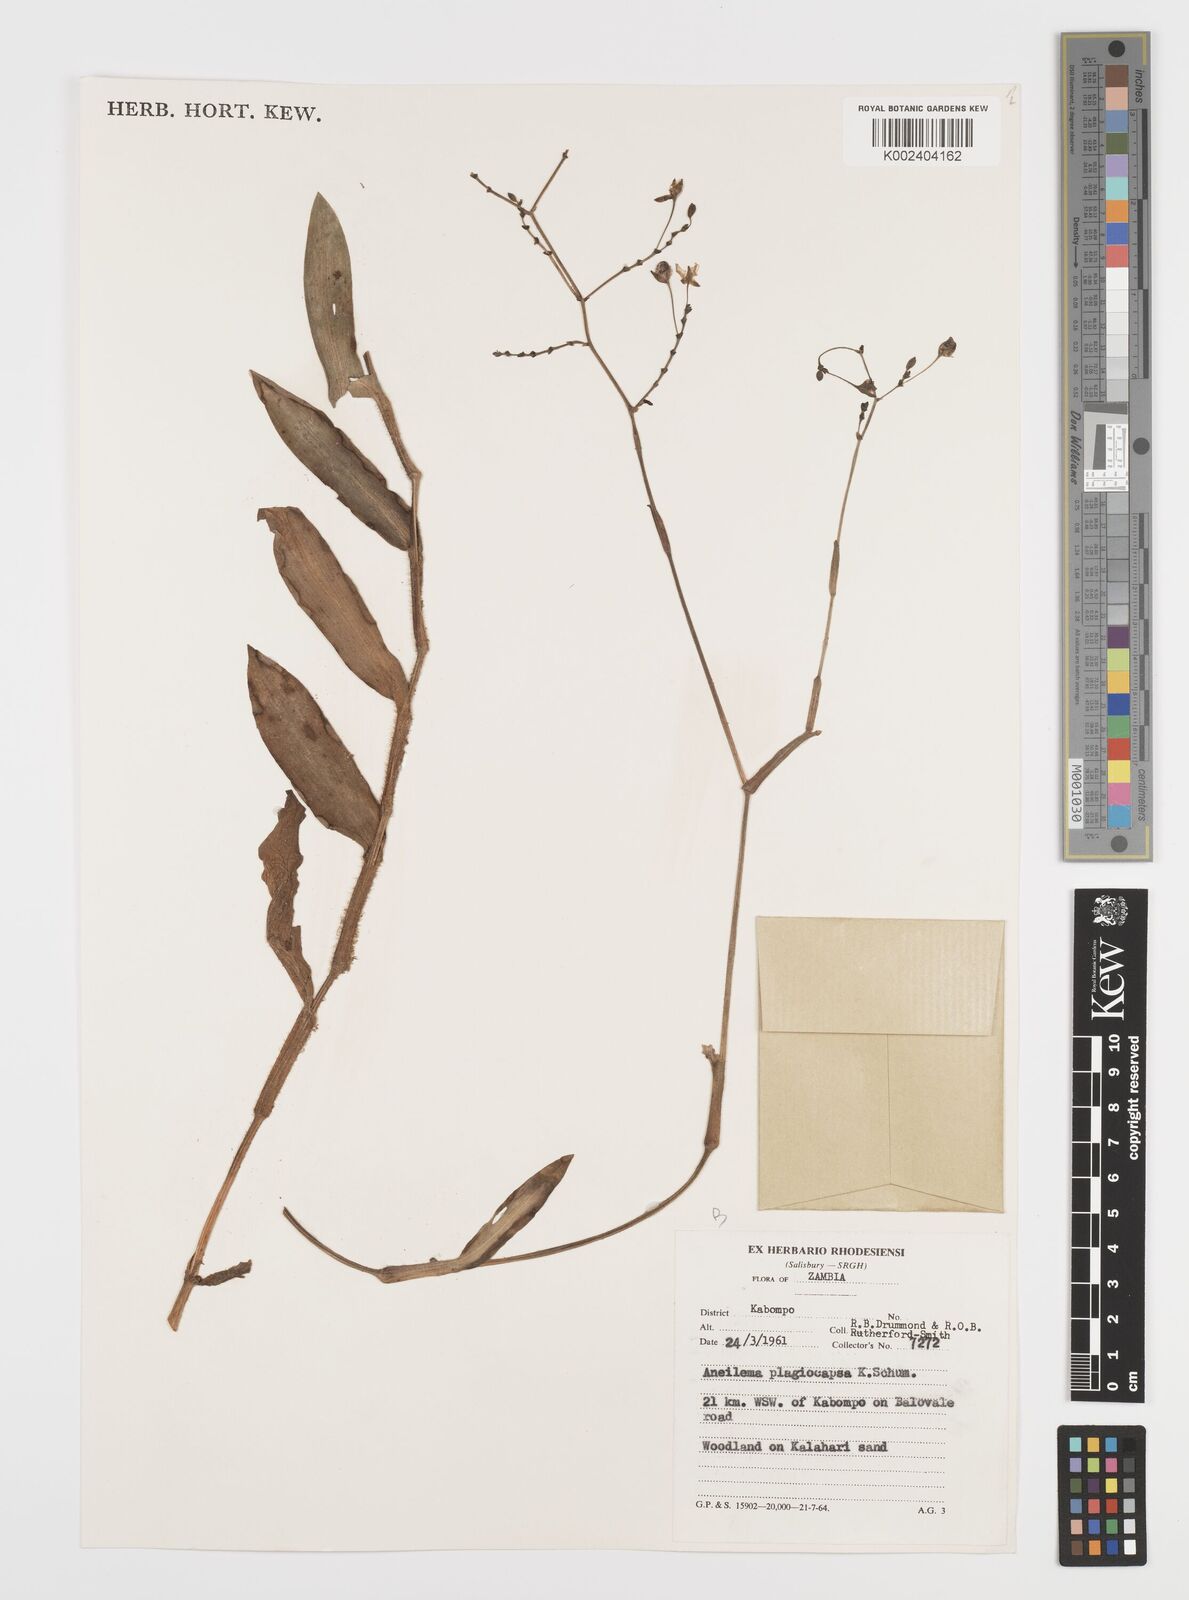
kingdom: Plantae
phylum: Tracheophyta
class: Liliopsida
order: Commelinales
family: Commelinaceae
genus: Aneilema
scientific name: Aneilema plagiocapsa
